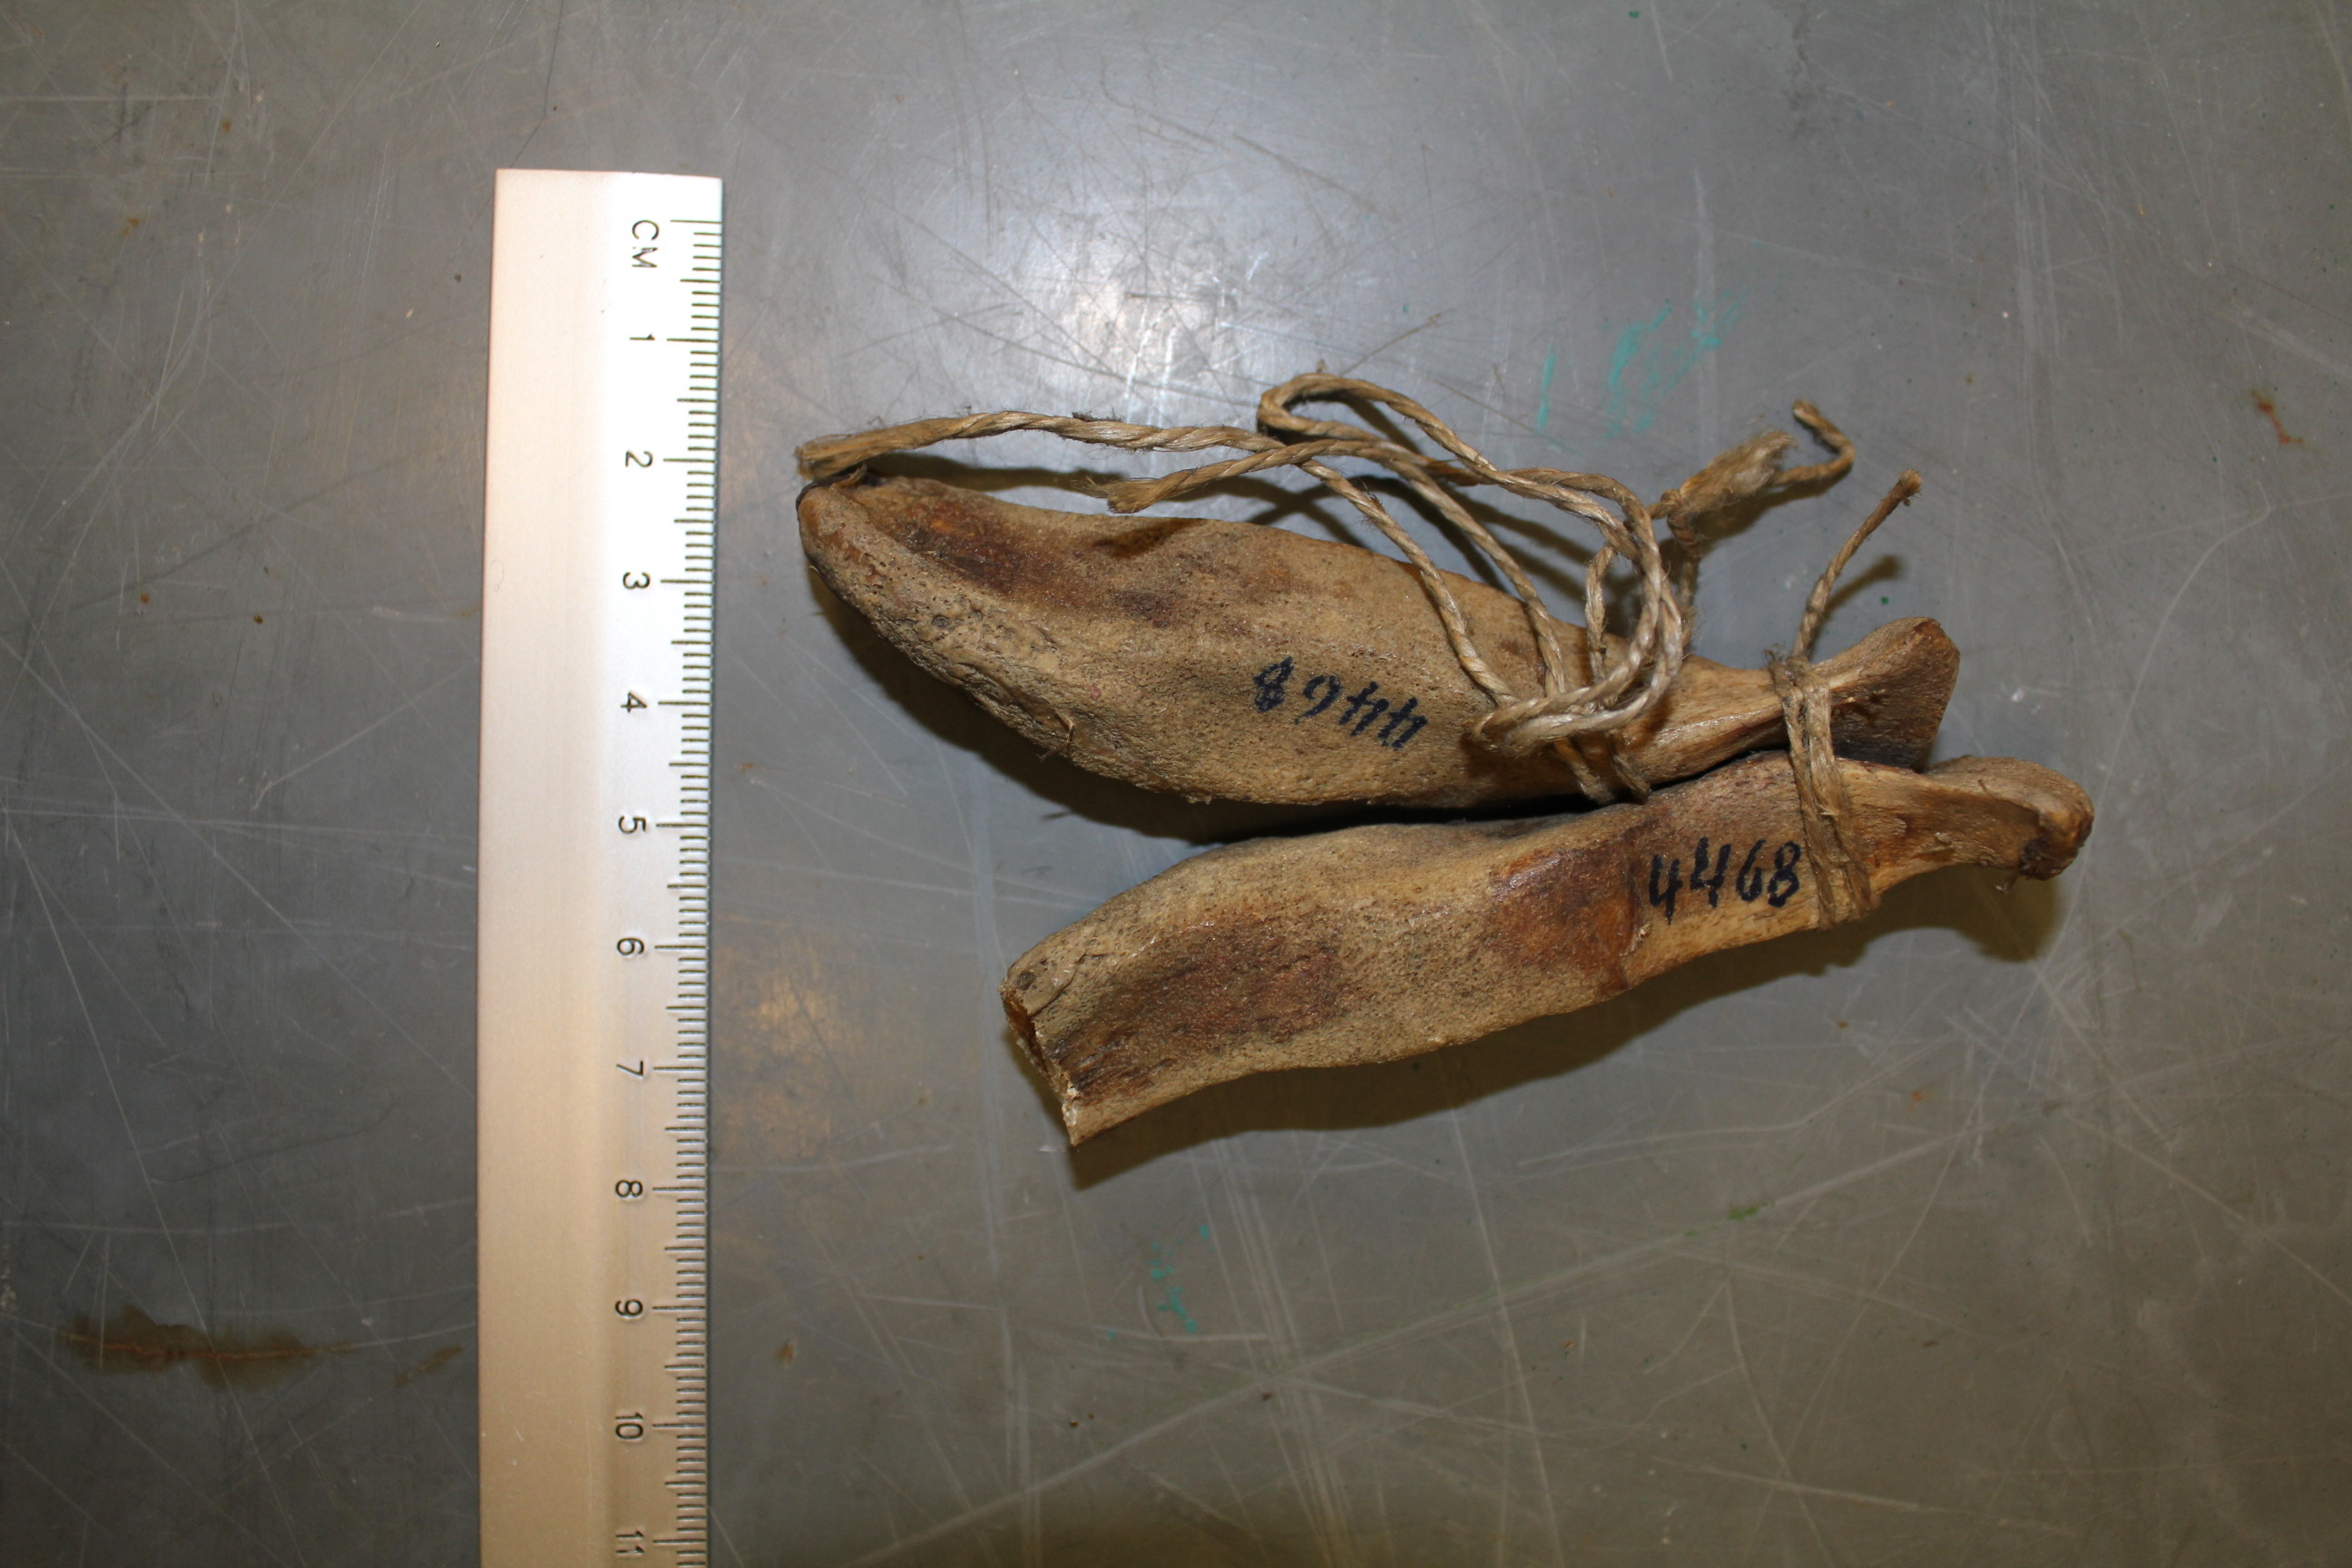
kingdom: Animalia
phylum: Chordata
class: Mammalia
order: Cetacea
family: Delphinidae
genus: Lagenorhynchus
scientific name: Lagenorhynchus acutus
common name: Atlantic white-sided dolphin
